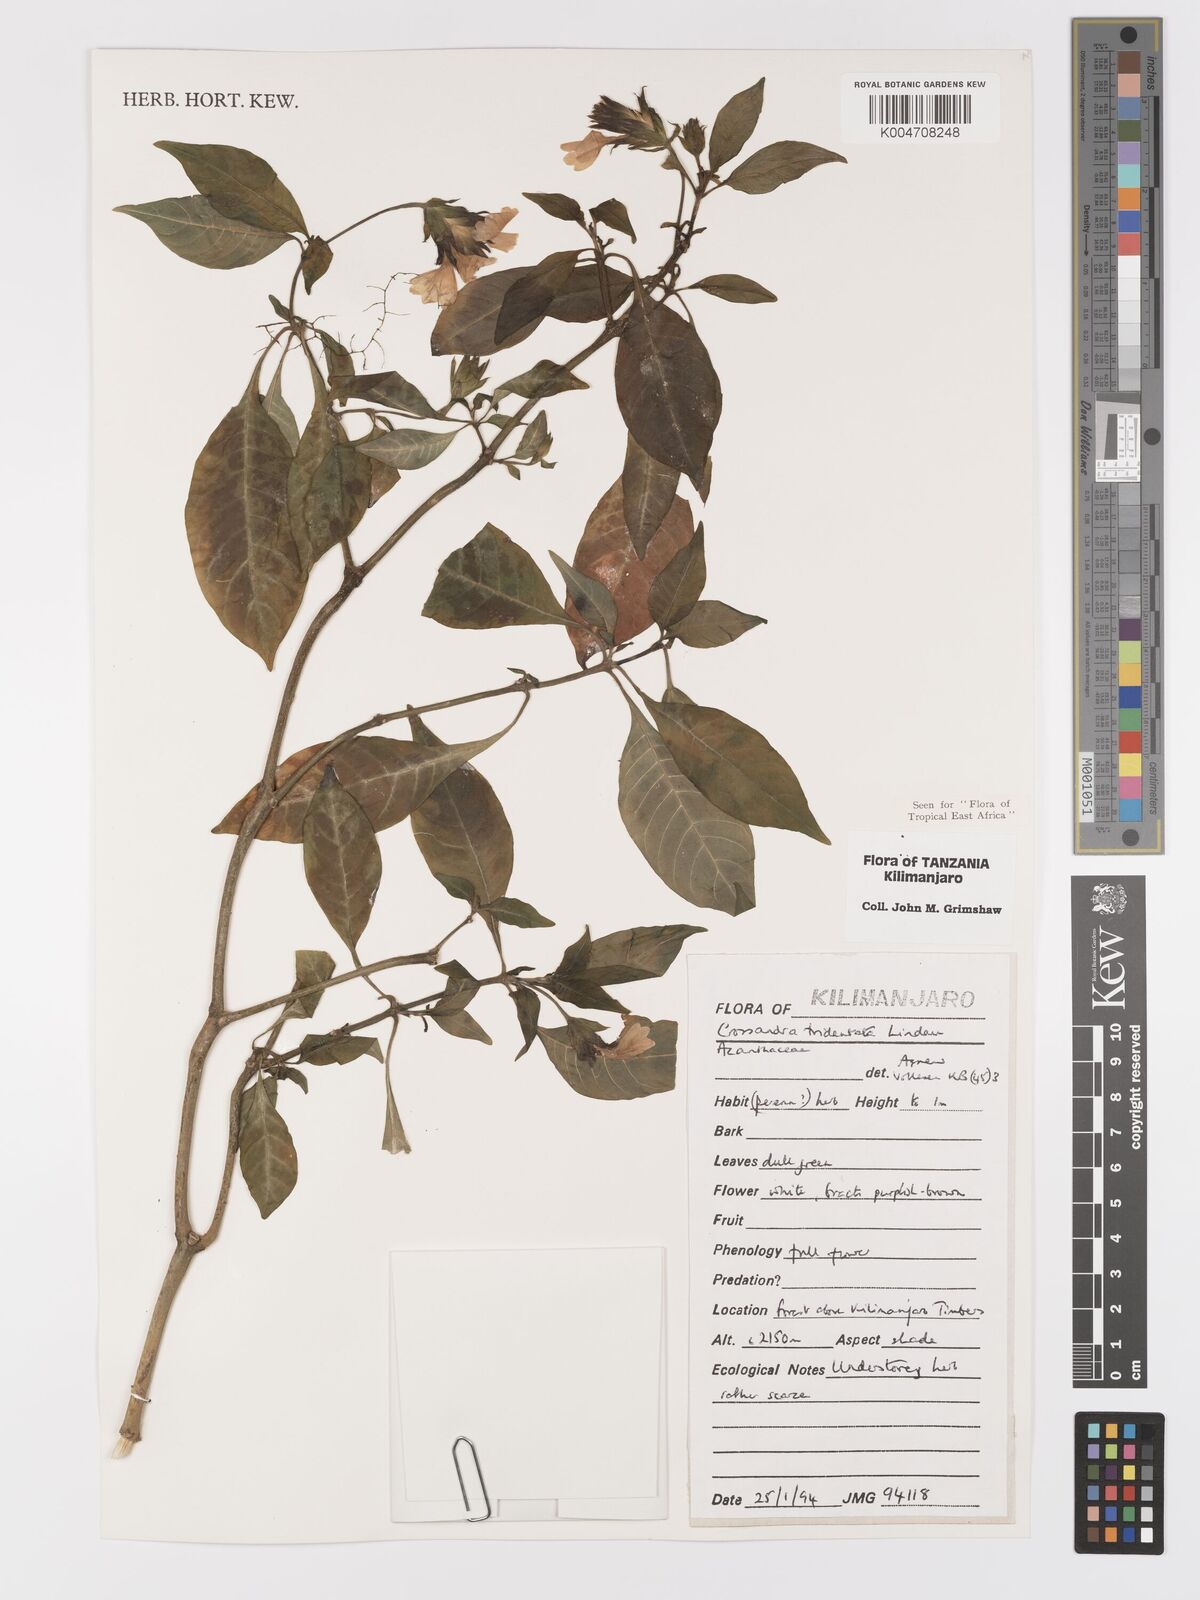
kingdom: Plantae
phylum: Tracheophyta
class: Magnoliopsida
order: Lamiales
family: Acanthaceae
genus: Crossandra
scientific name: Crossandra tridentata
